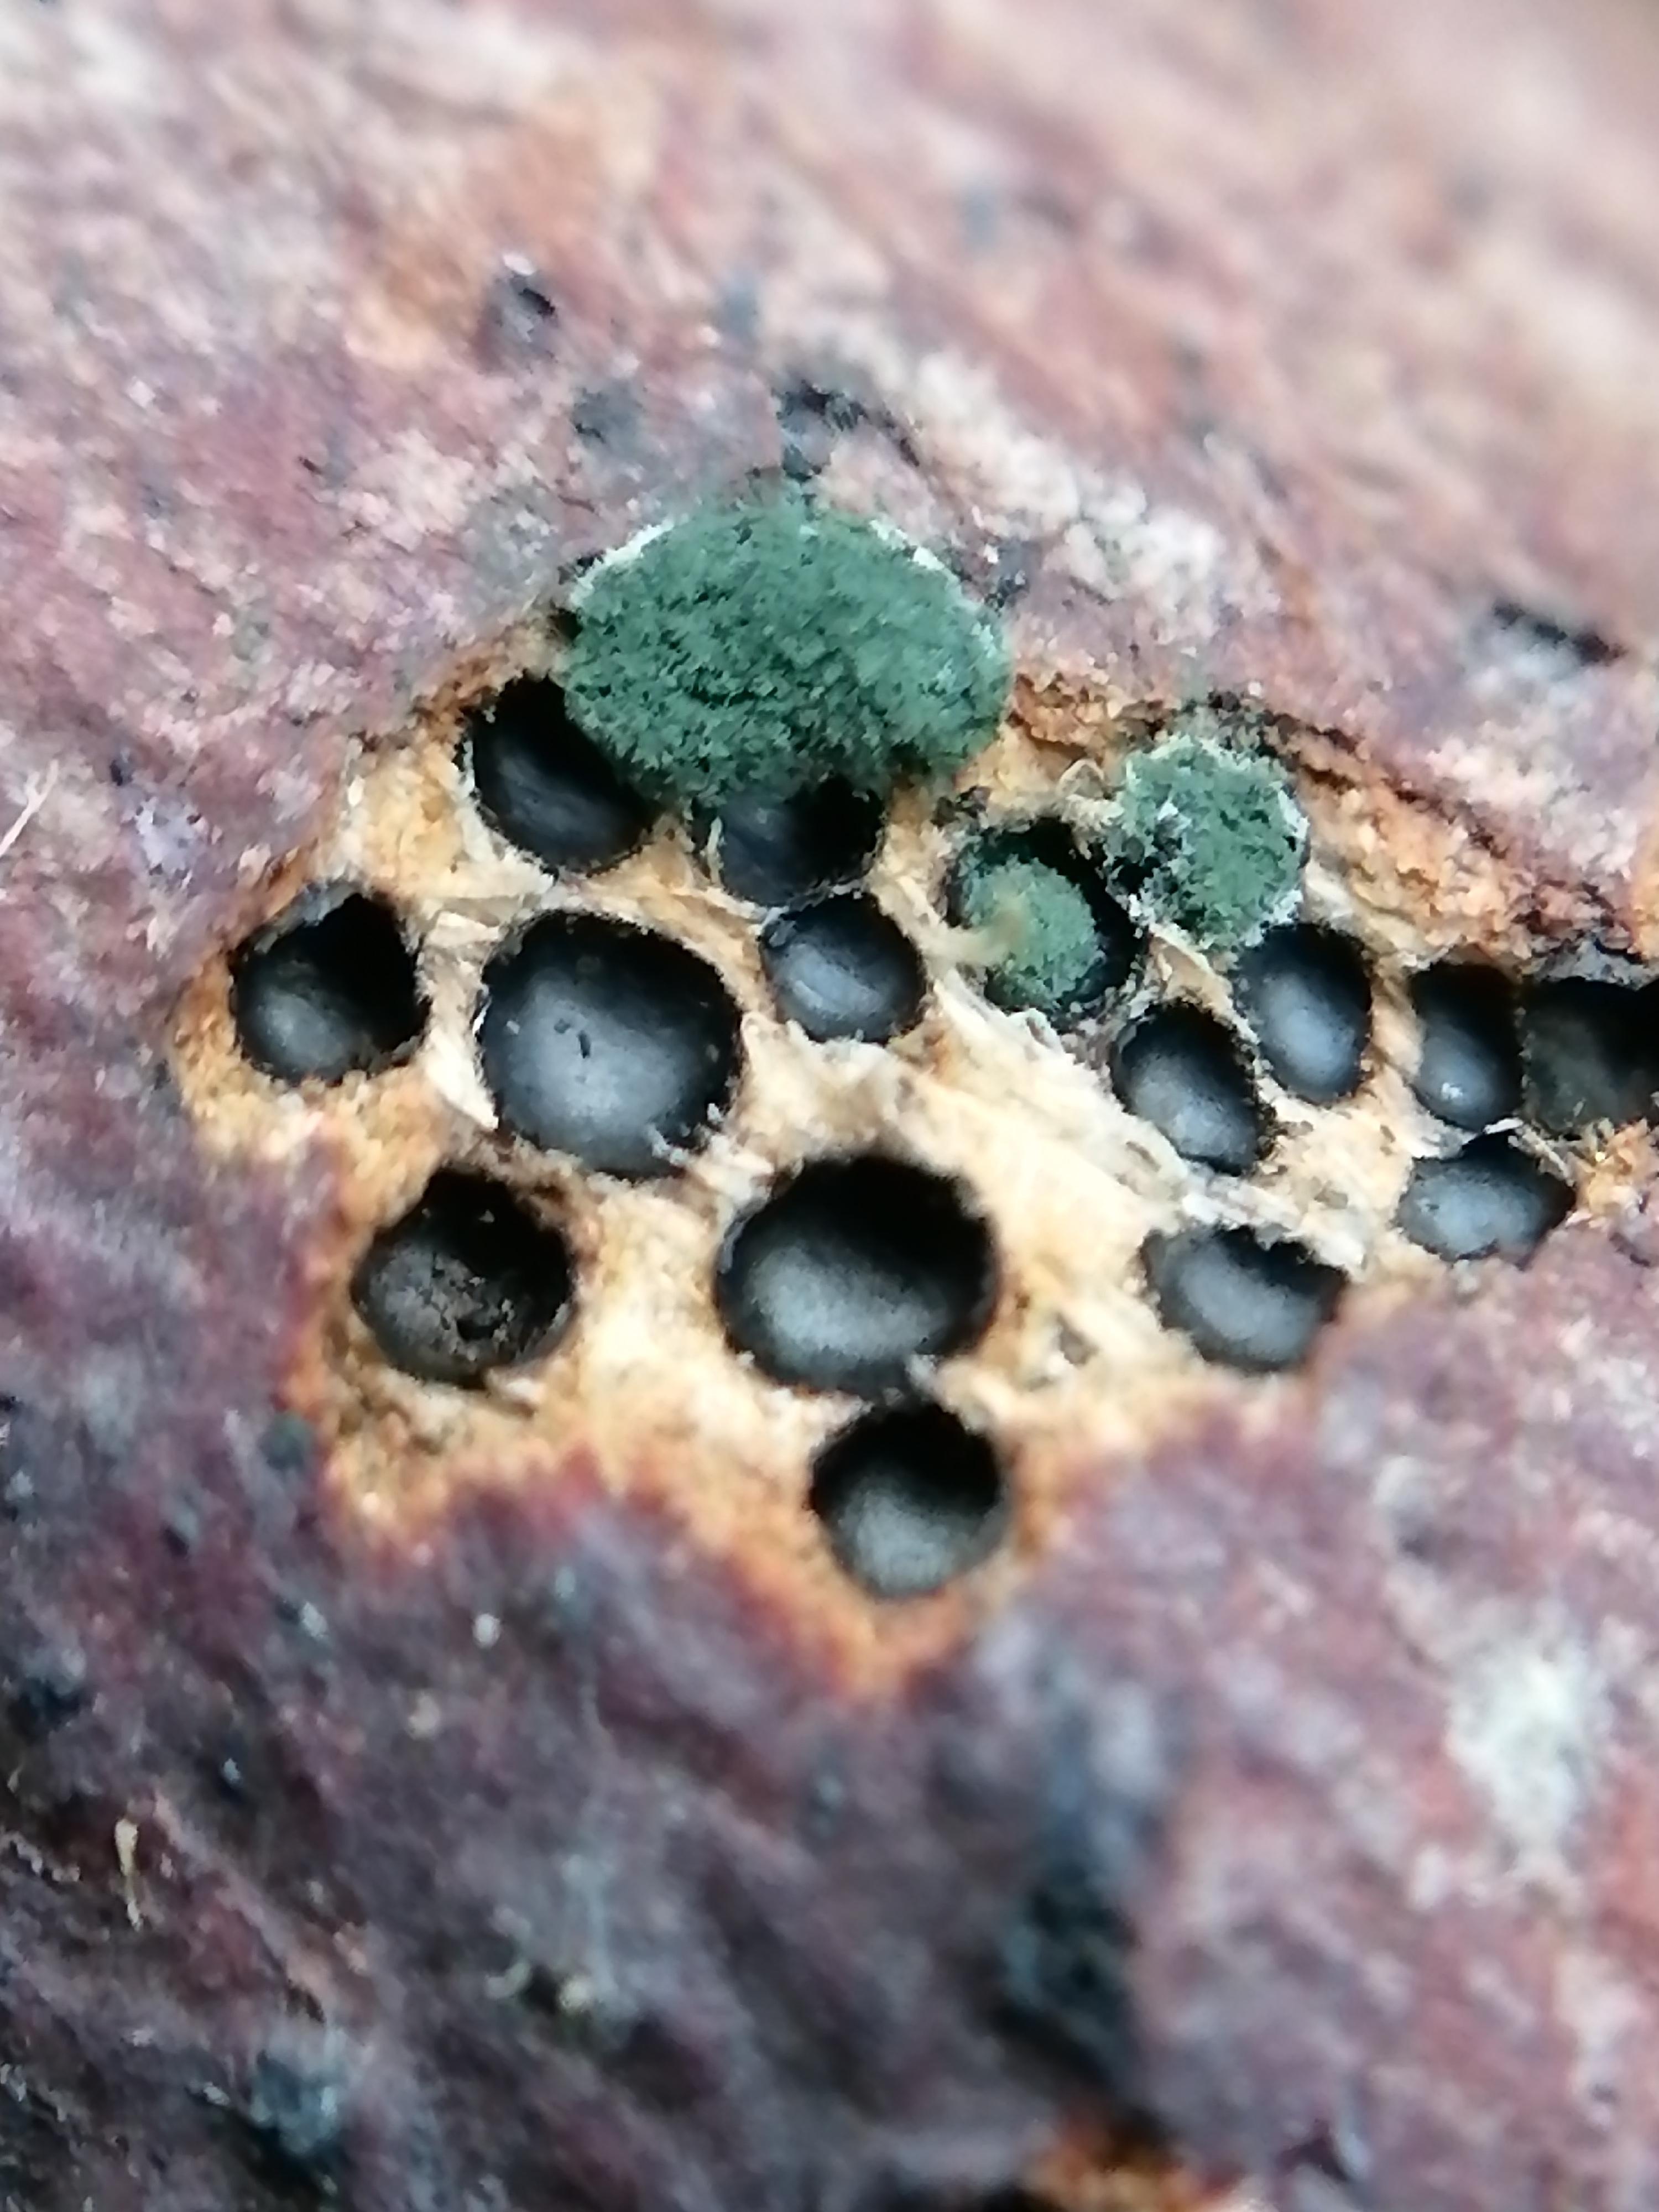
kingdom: Fungi
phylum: Ascomycota
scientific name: Ascomycota
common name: sæksvampe
